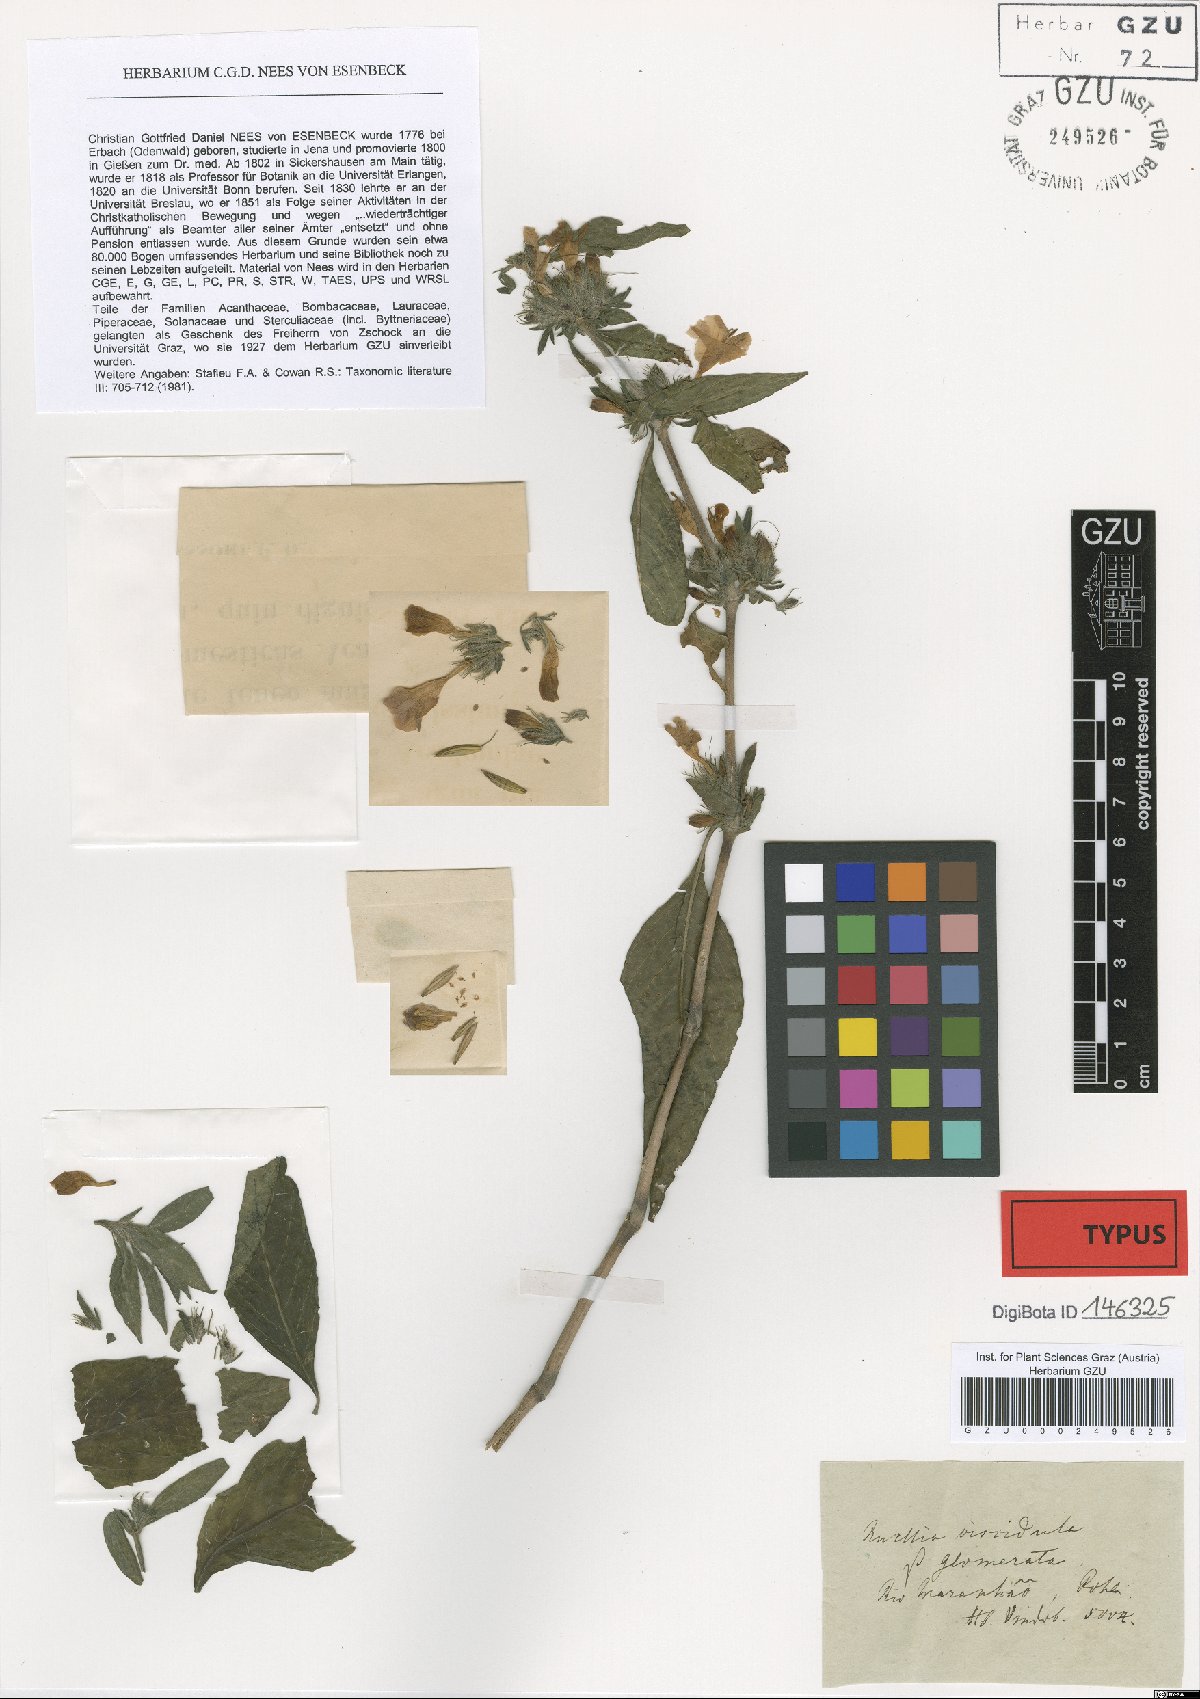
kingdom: Plantae
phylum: Tracheophyta
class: Magnoliopsida
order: Lamiales
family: Acanthaceae
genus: Ruellia
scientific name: Ruellia viscidula
